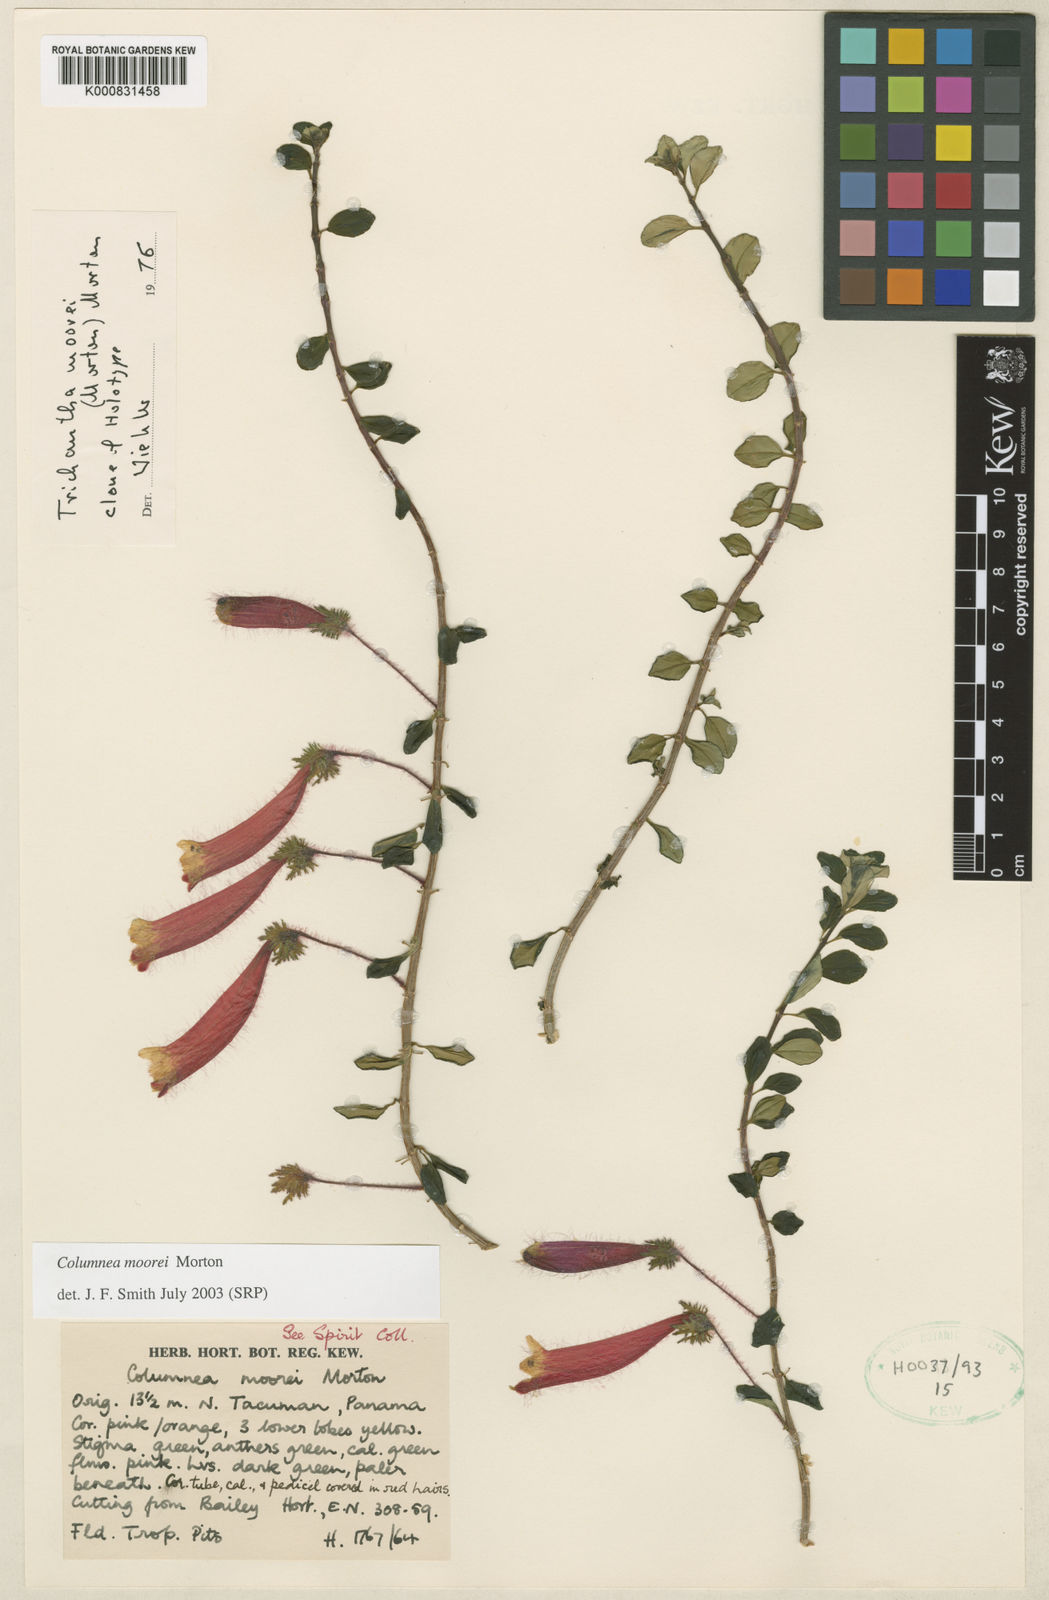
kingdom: Plantae
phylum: Tracheophyta
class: Magnoliopsida
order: Lamiales
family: Gesneriaceae
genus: Columnea
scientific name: Columnea moorei
